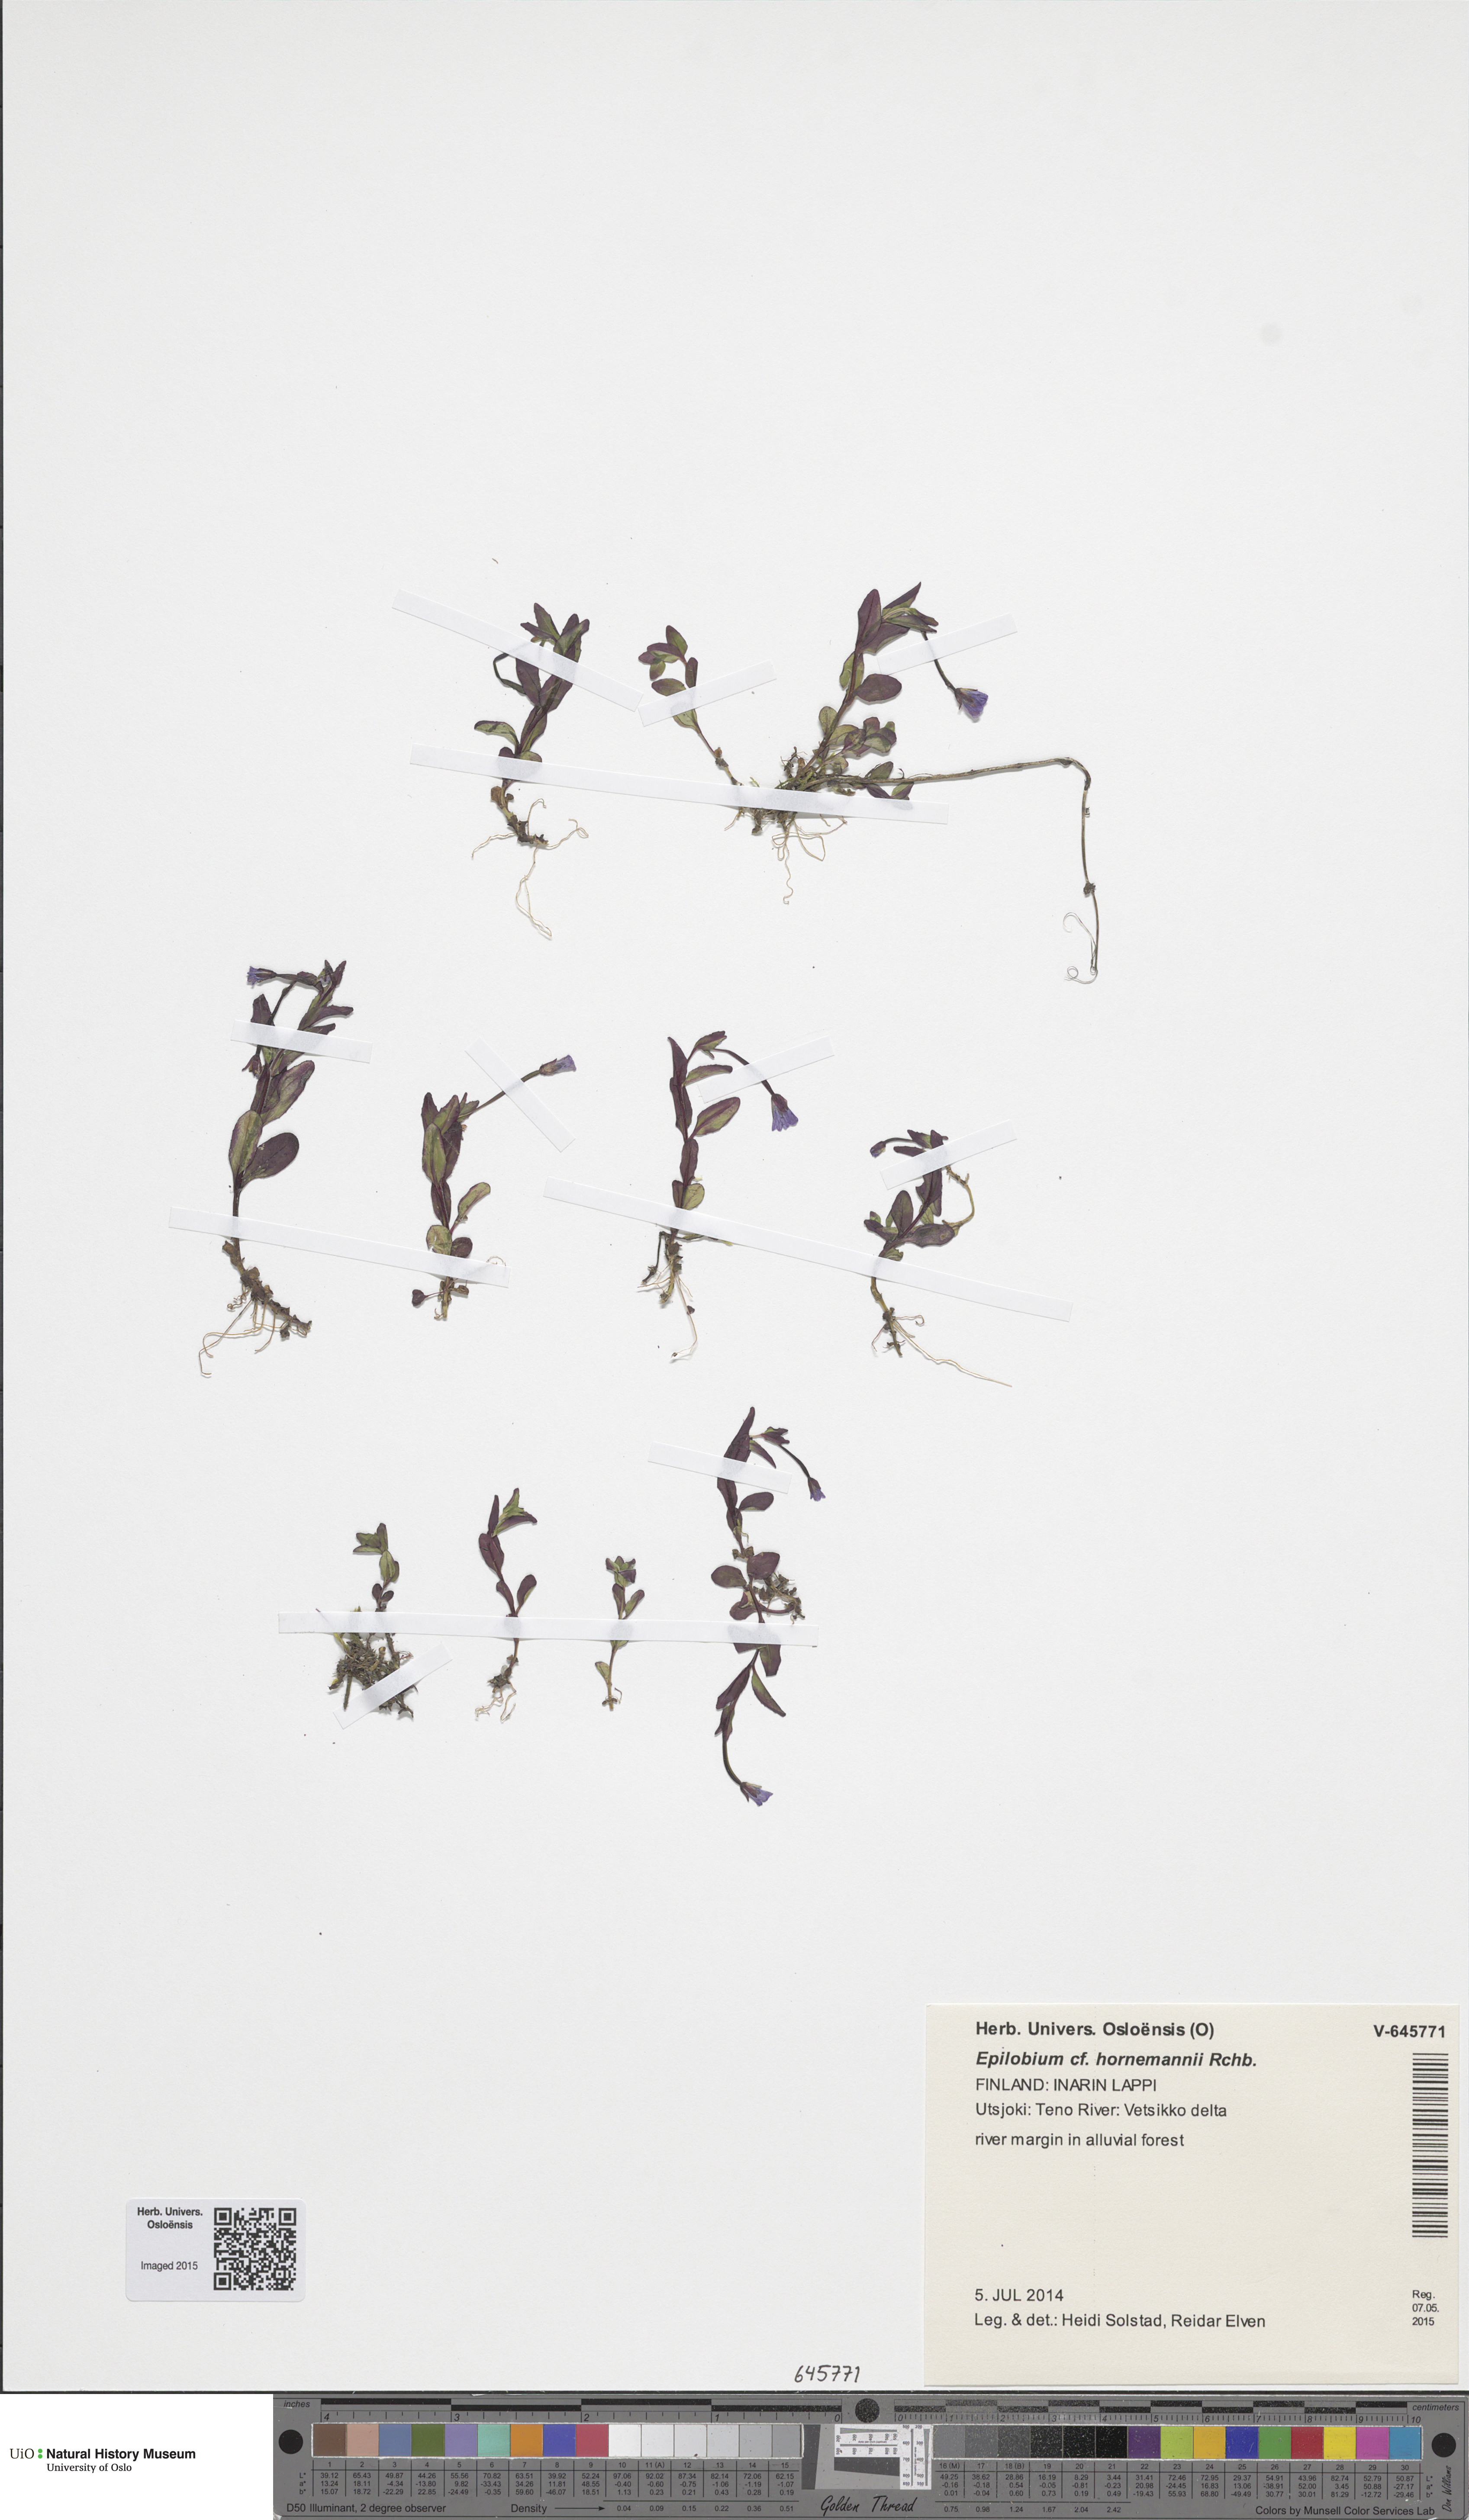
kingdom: Plantae
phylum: Tracheophyta
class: Magnoliopsida
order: Myrtales
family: Onagraceae
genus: Epilobium
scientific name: Epilobium hornemannii
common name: Hornemann's willowherb
